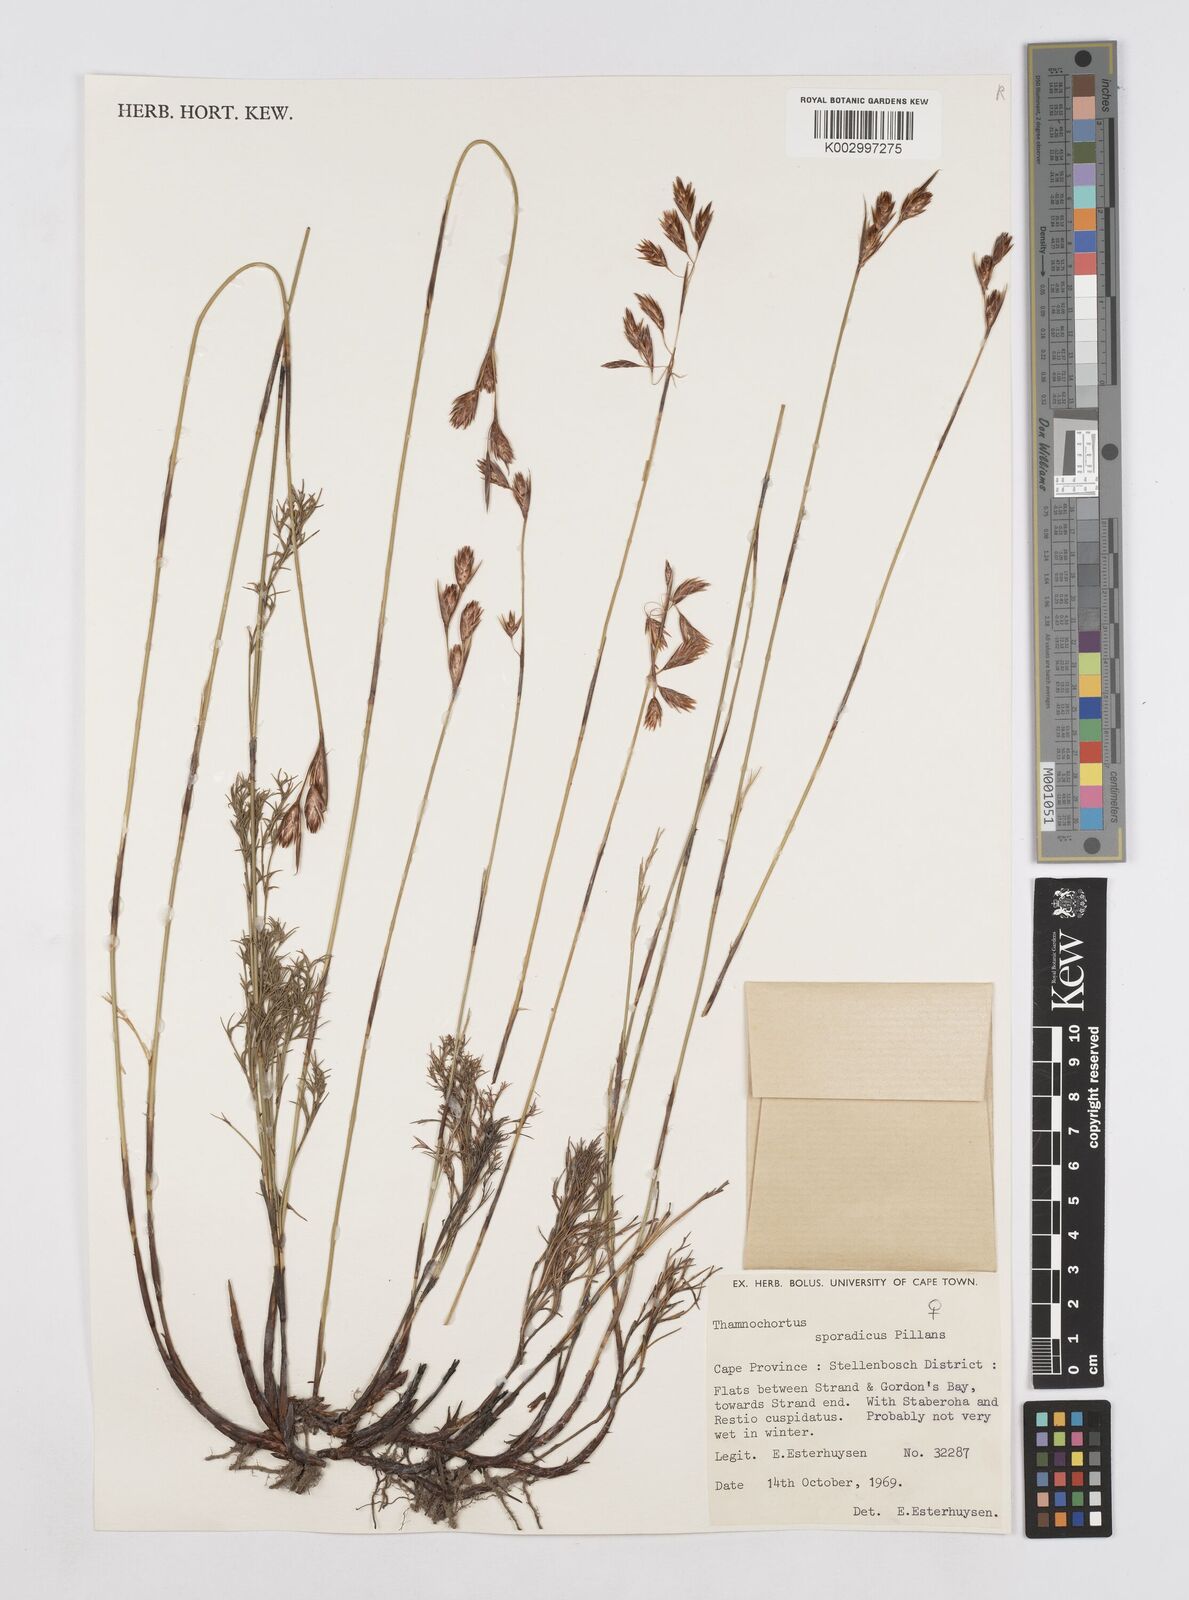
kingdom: Plantae
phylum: Tracheophyta
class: Liliopsida
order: Poales
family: Restionaceae
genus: Thamnochortus
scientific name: Thamnochortus sporadicus
